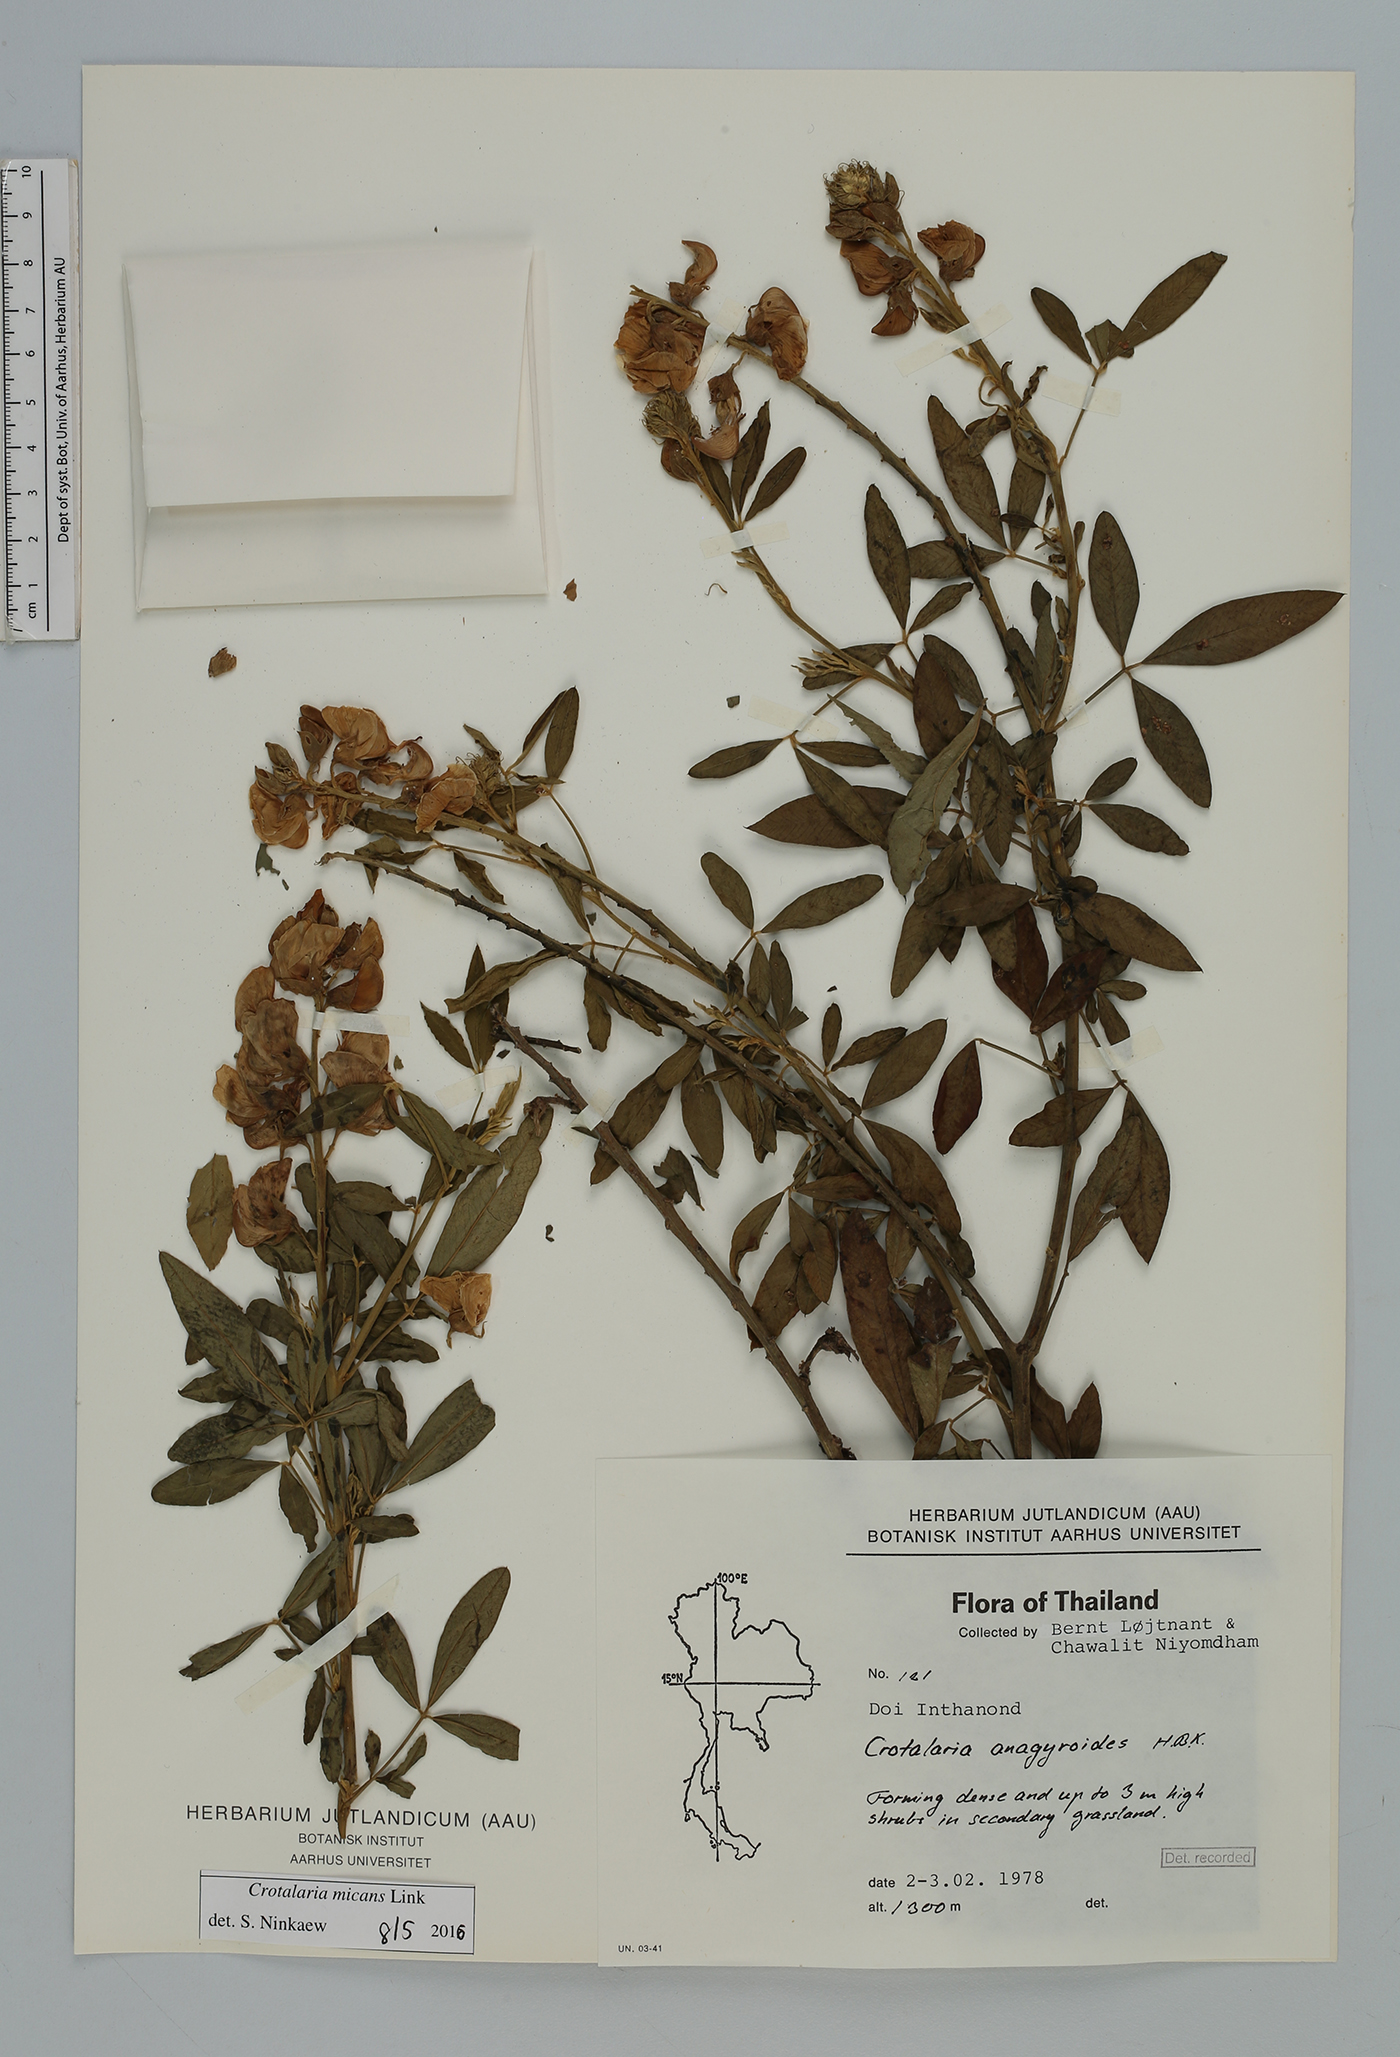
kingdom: Plantae
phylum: Tracheophyta
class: Magnoliopsida
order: Fabales
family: Fabaceae
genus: Crotalaria
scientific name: Crotalaria micans
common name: Caracas rattlebox
